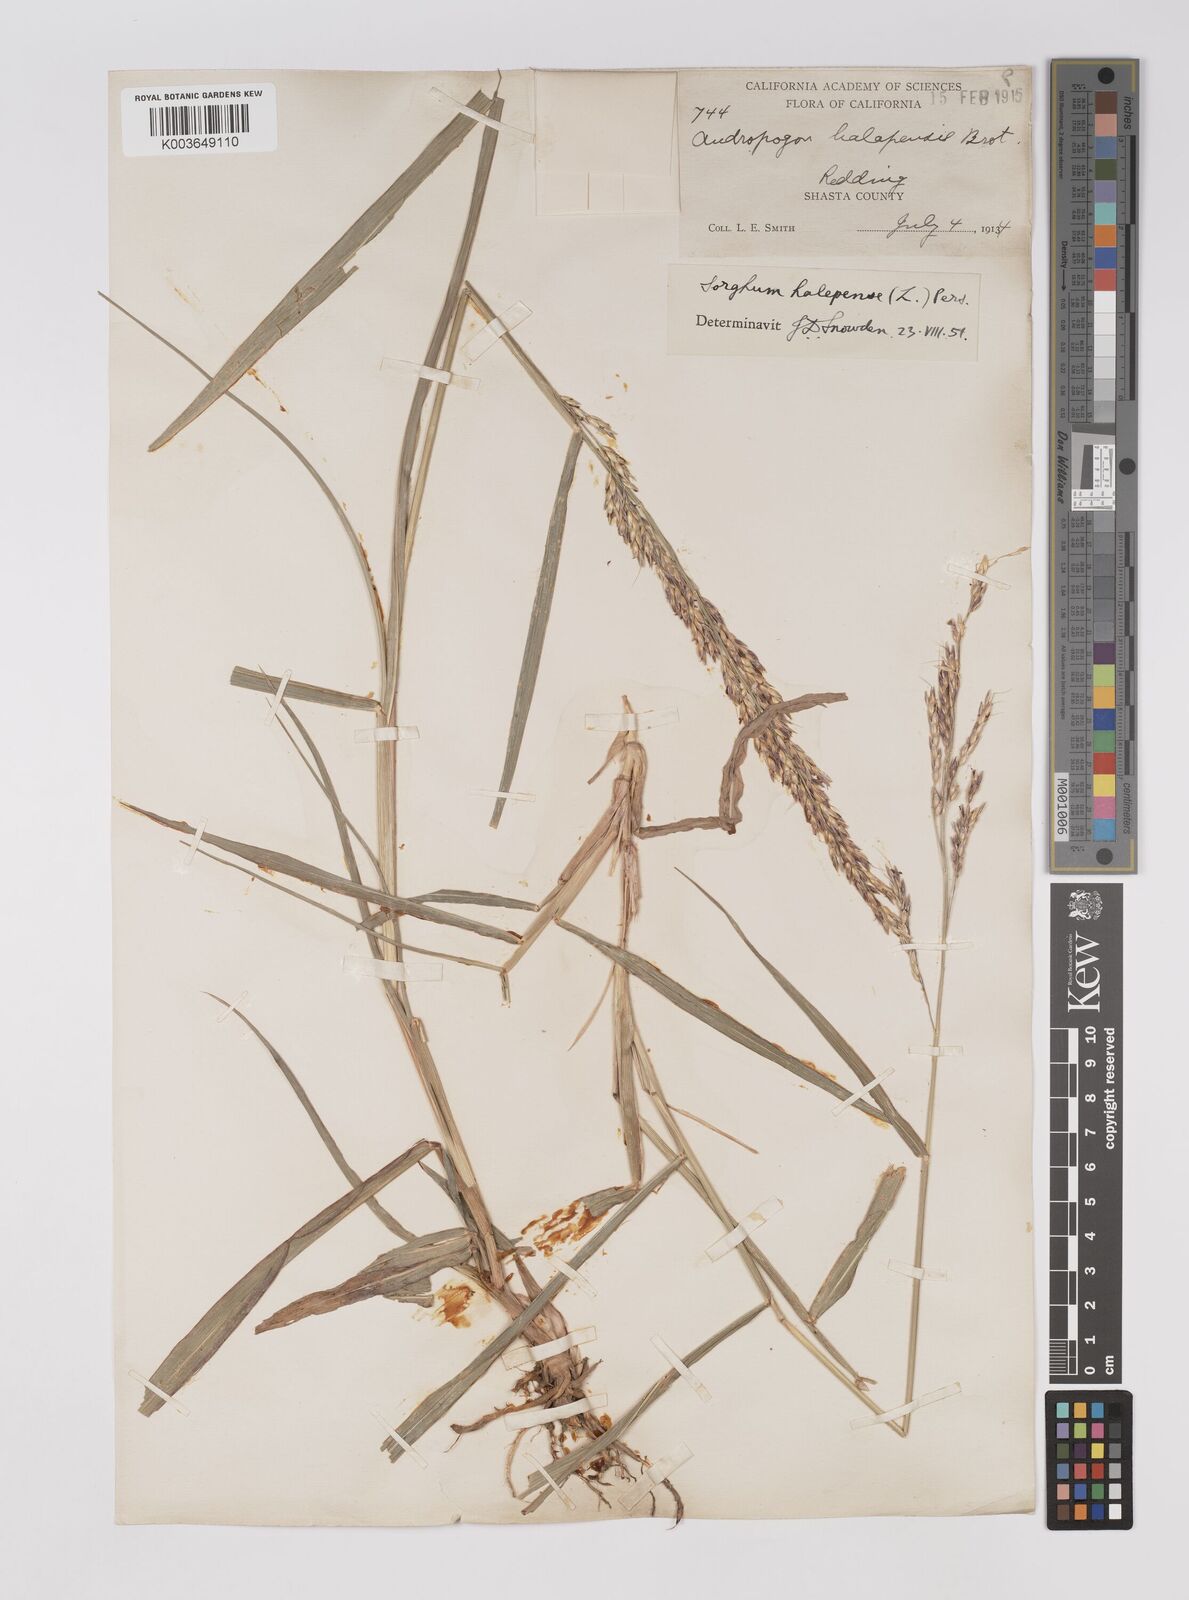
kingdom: Plantae
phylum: Tracheophyta
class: Liliopsida
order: Poales
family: Poaceae
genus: Sorghum
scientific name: Sorghum halepense
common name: Johnson-grass
